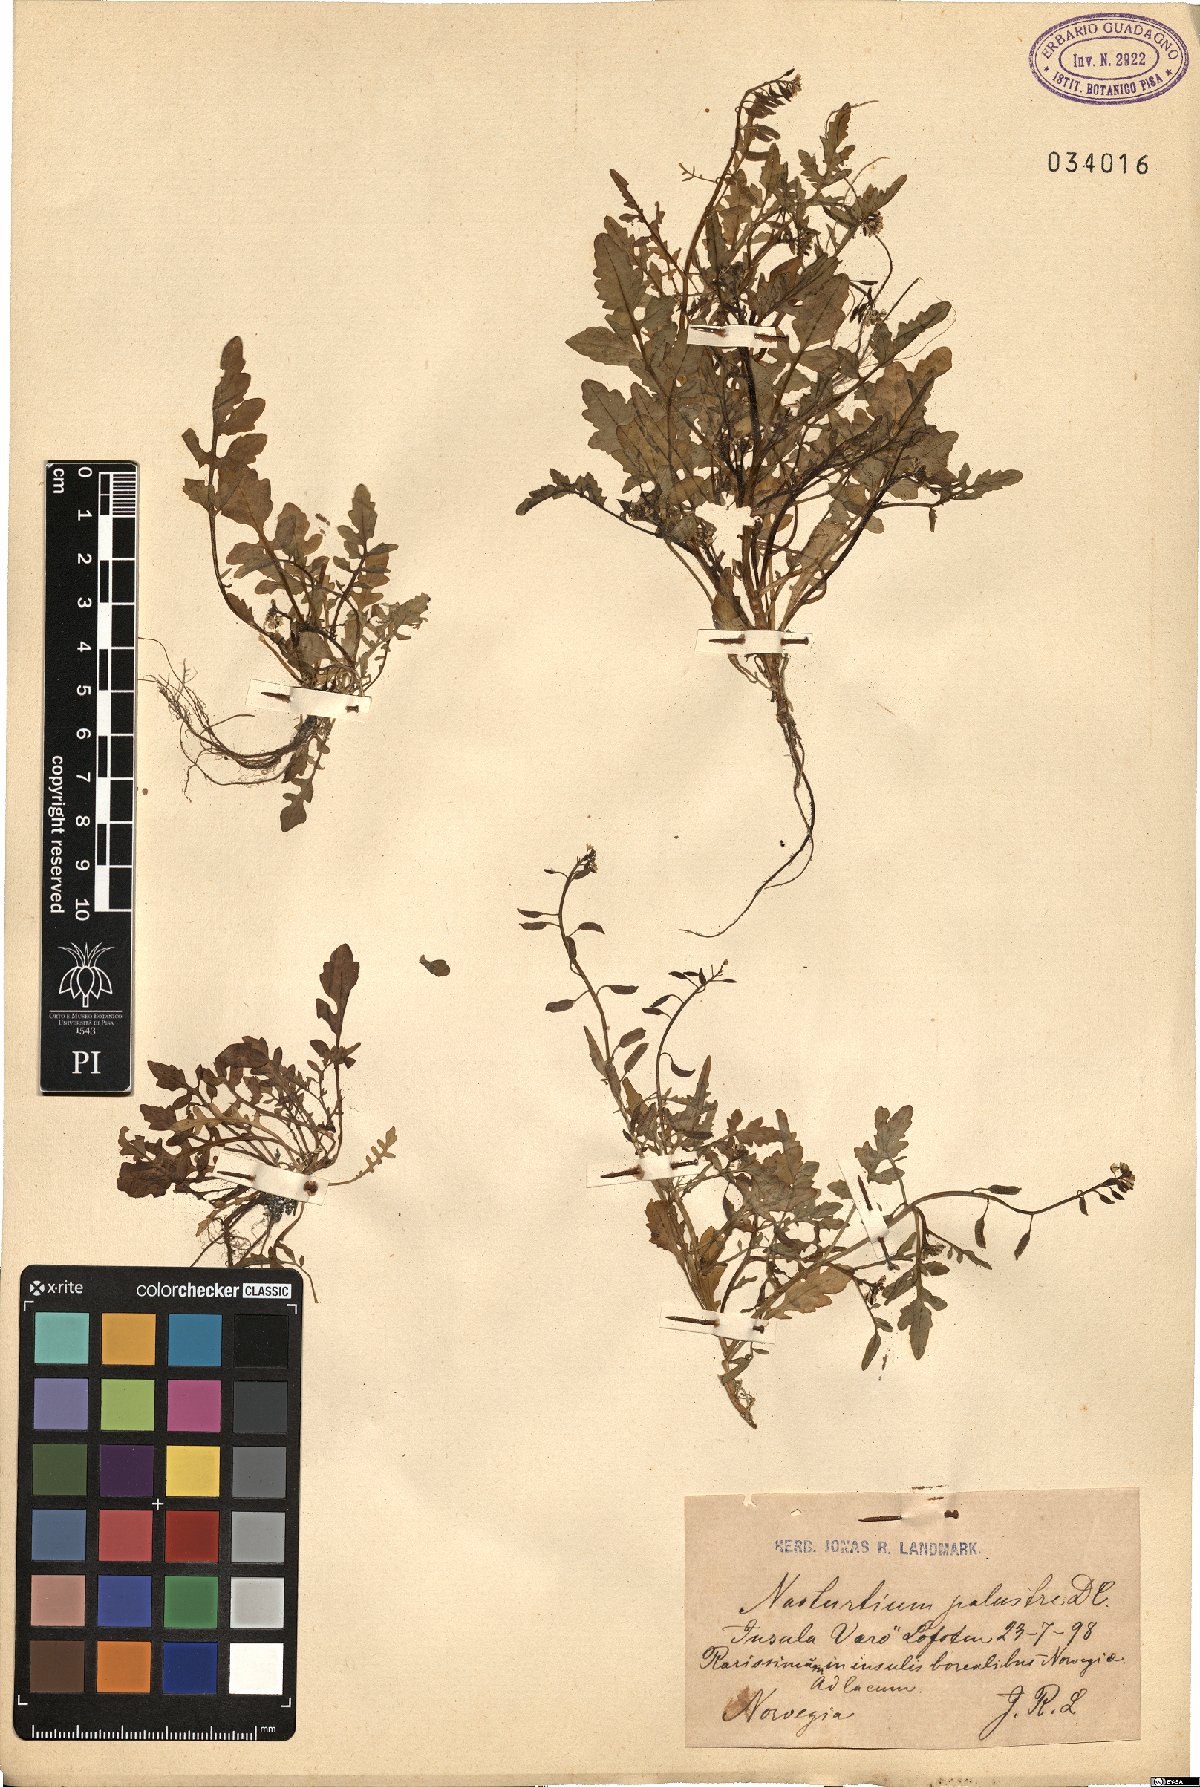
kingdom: Plantae
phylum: Tracheophyta
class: Magnoliopsida
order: Brassicales
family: Brassicaceae
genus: Rorippa
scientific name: Rorippa palustris
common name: Marsh yellow-cress
